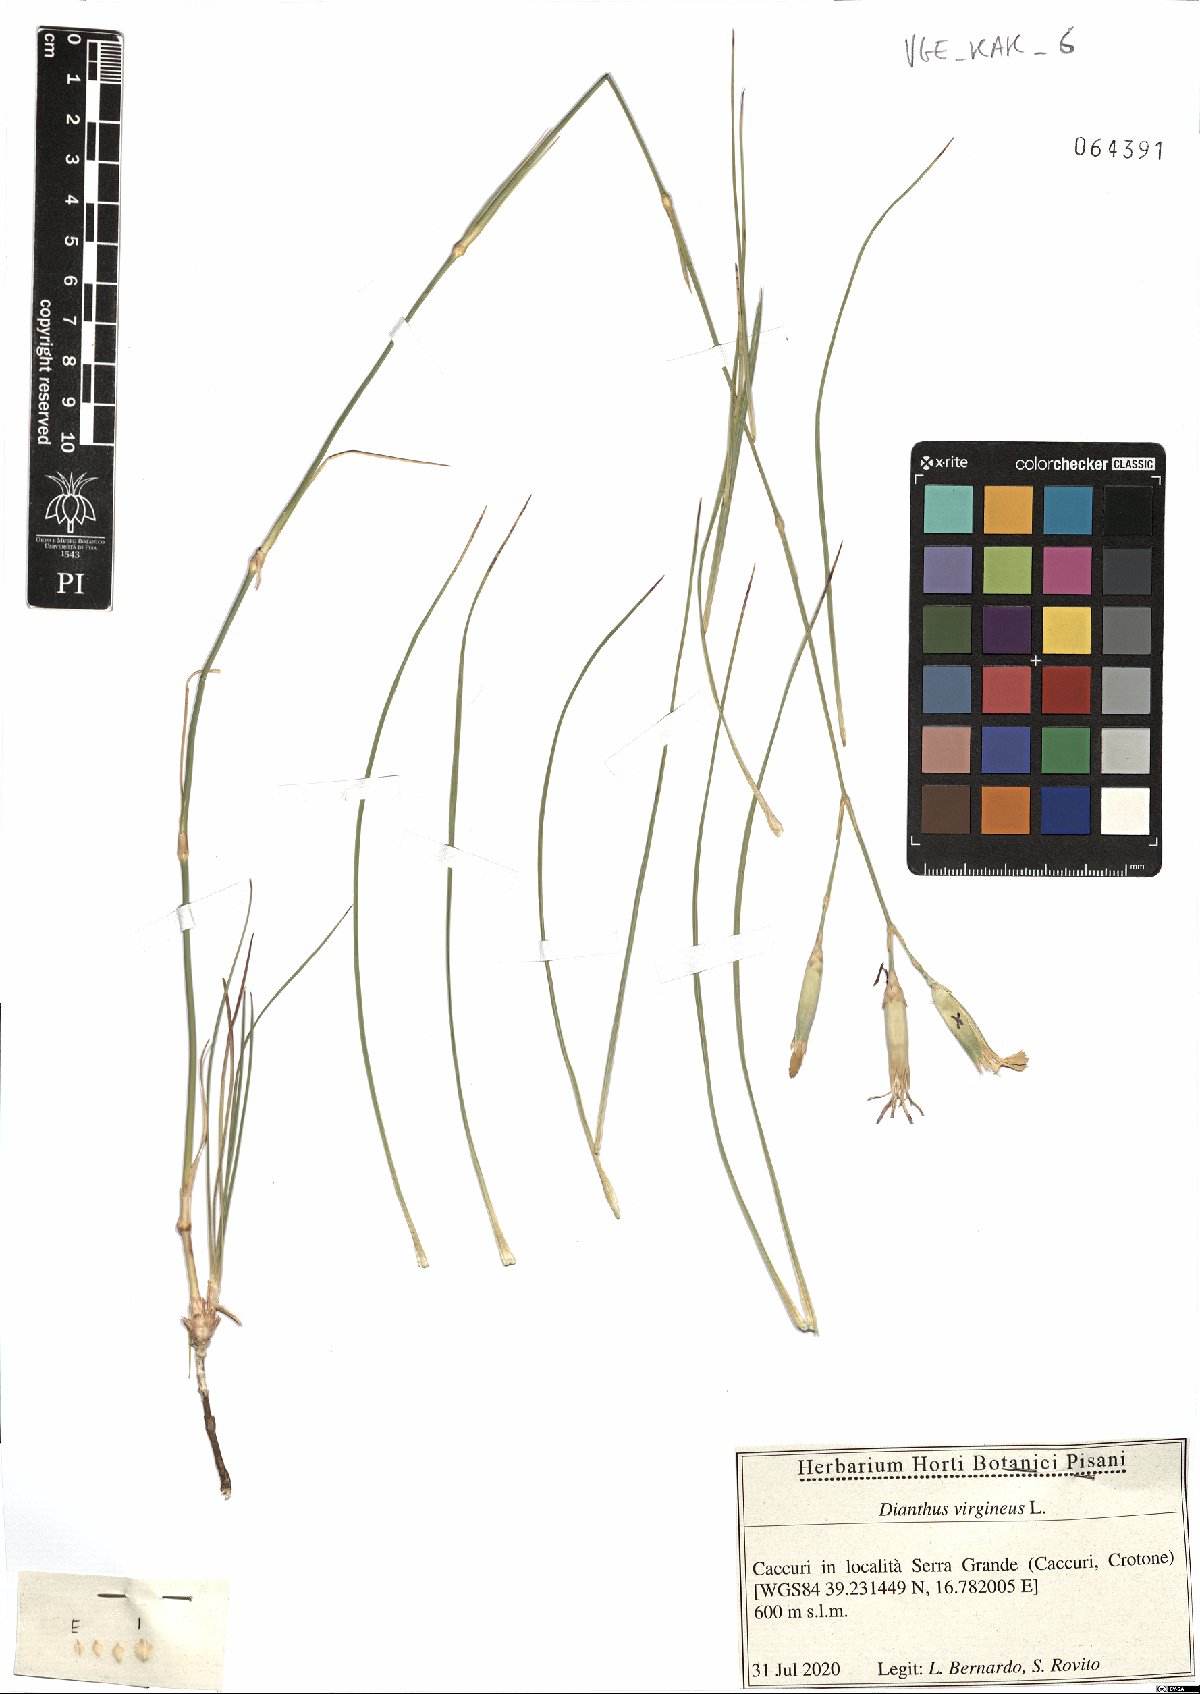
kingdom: Plantae
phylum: Tracheophyta
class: Magnoliopsida
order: Caryophyllales
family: Caryophyllaceae
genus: Dianthus
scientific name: Dianthus virgineus
